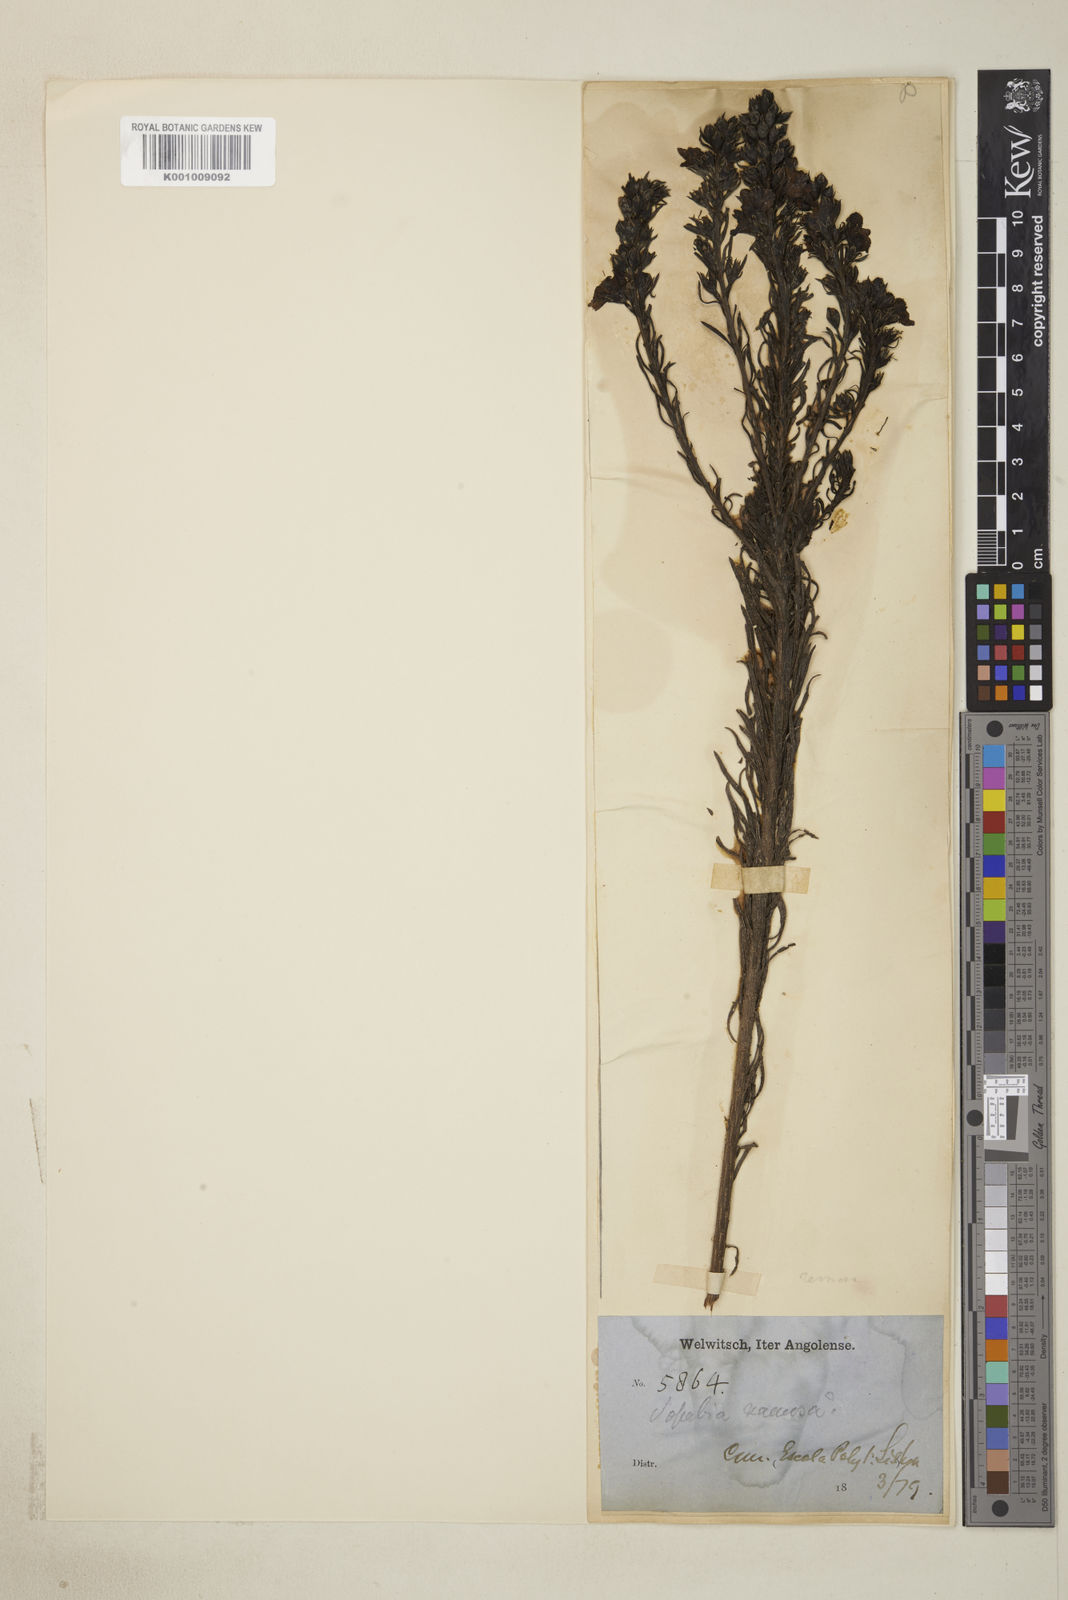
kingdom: Plantae
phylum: Tracheophyta
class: Magnoliopsida
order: Lamiales
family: Orobanchaceae
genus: Sopubia
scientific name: Sopubia ramosa
